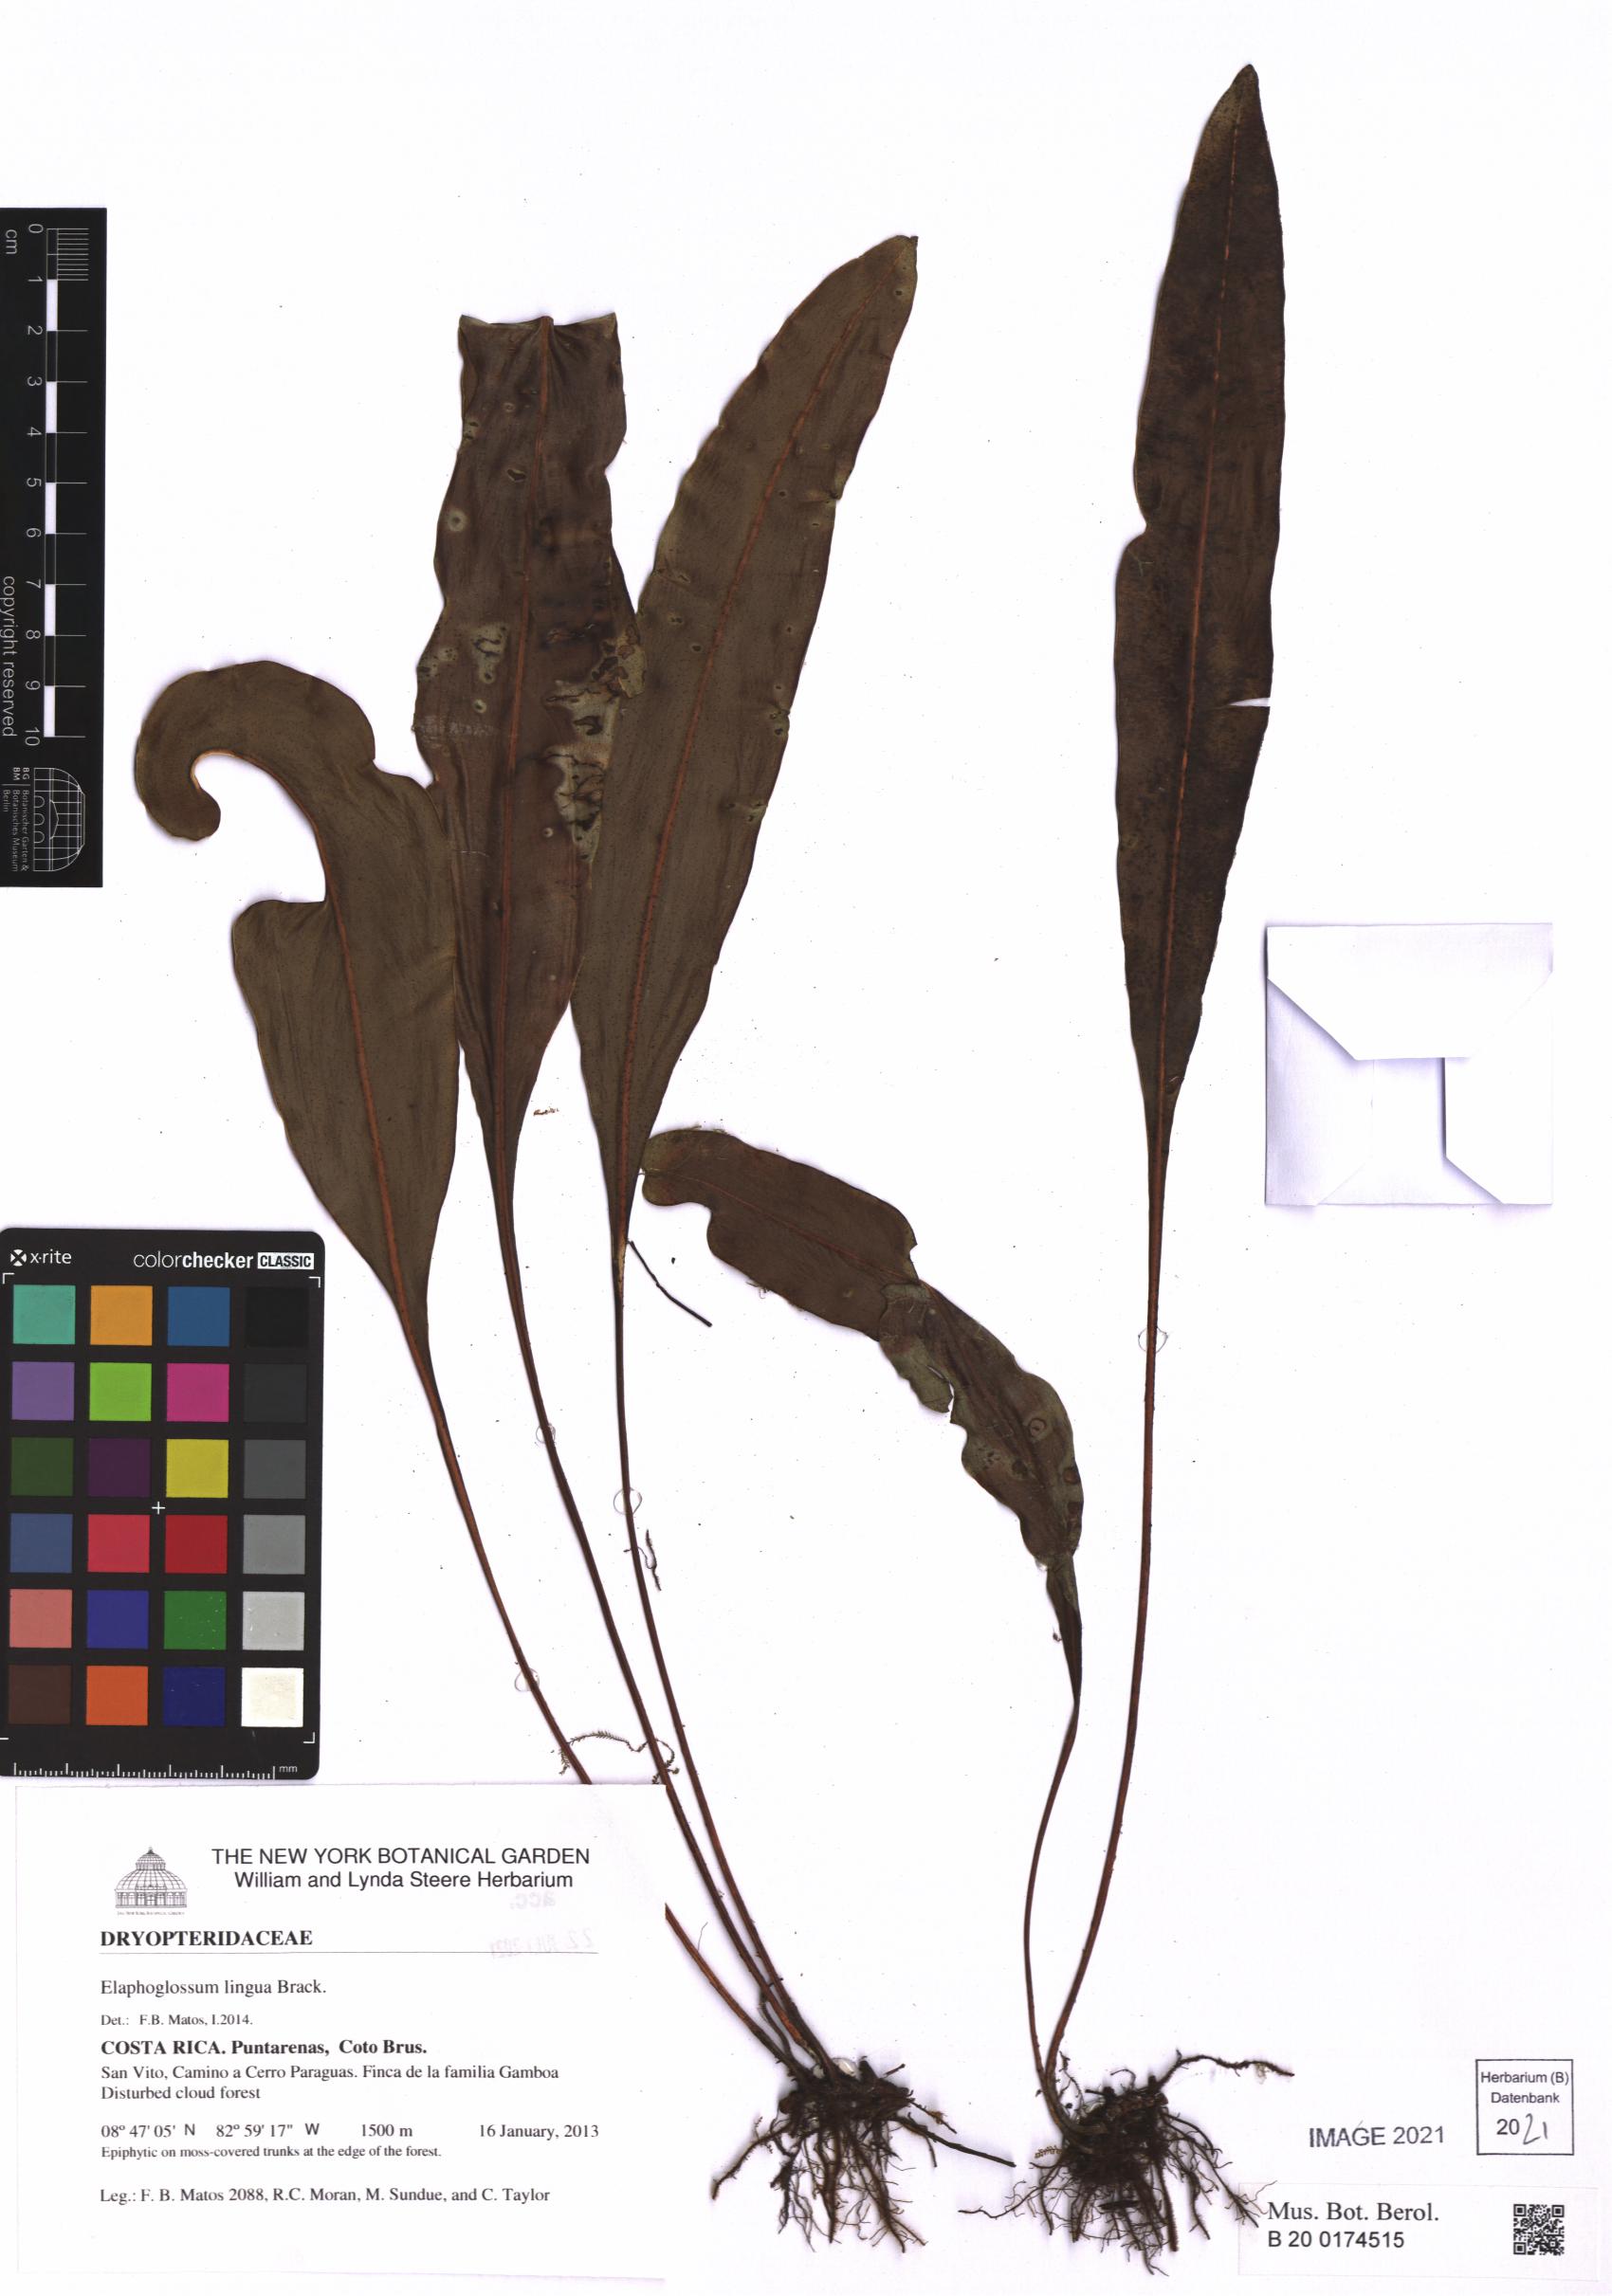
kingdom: Plantae
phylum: Tracheophyta
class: Polypodiopsida
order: Polypodiales
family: Dryopteridaceae
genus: Elaphoglossum
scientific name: Elaphoglossum lingua
